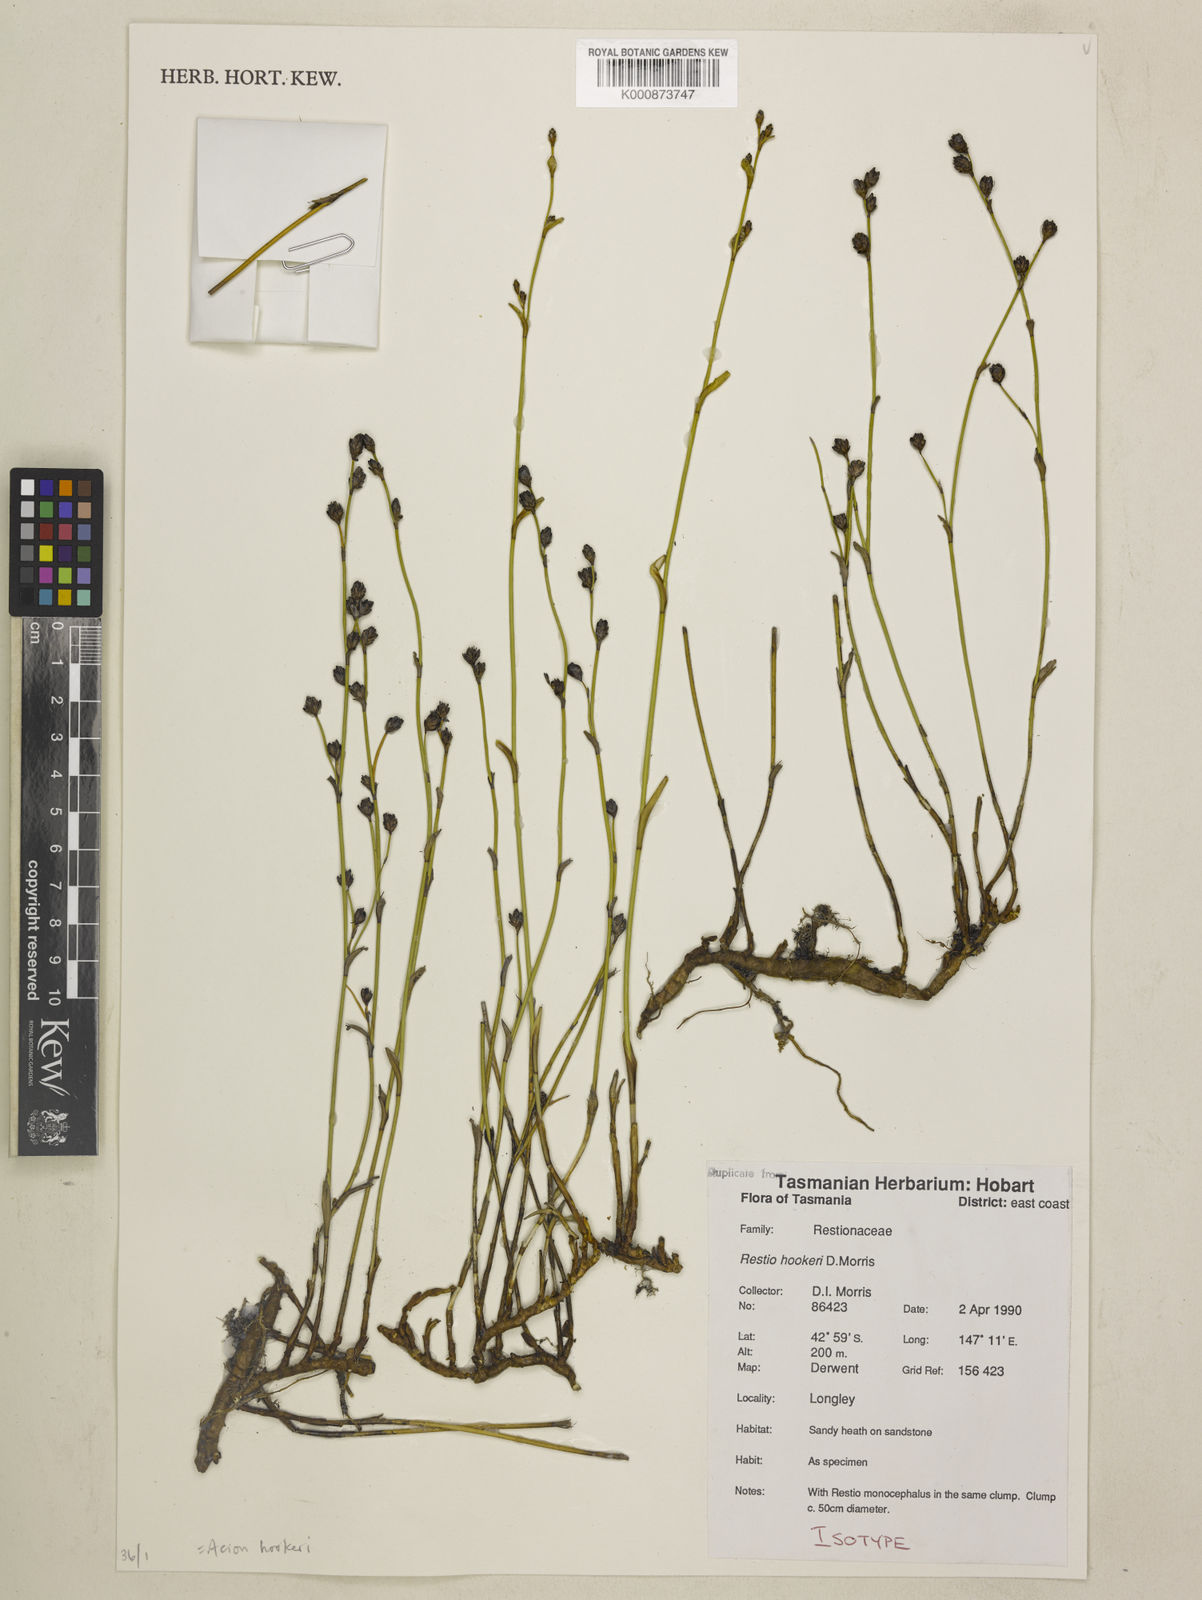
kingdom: Plantae
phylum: Tracheophyta
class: Liliopsida
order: Poales
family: Restionaceae
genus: Chordifex
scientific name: Chordifex hookeri
